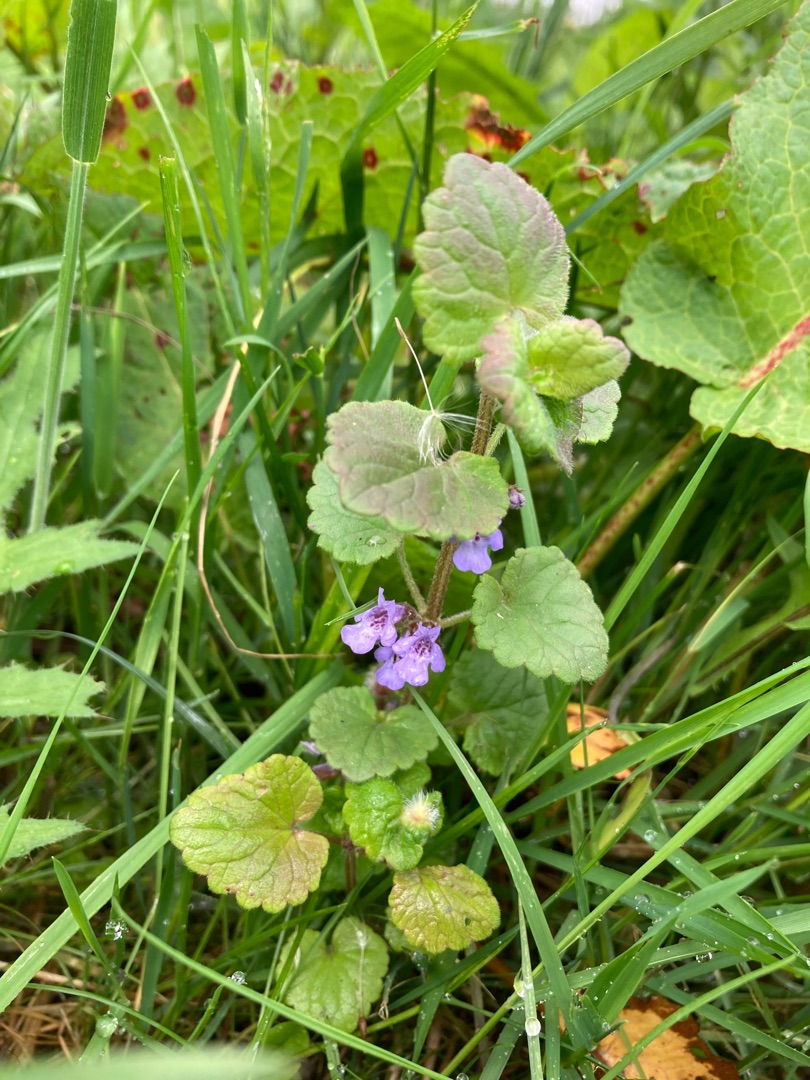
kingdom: Plantae
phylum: Tracheophyta
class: Magnoliopsida
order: Lamiales
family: Lamiaceae
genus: Glechoma
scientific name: Glechoma hederacea
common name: Korsknap
